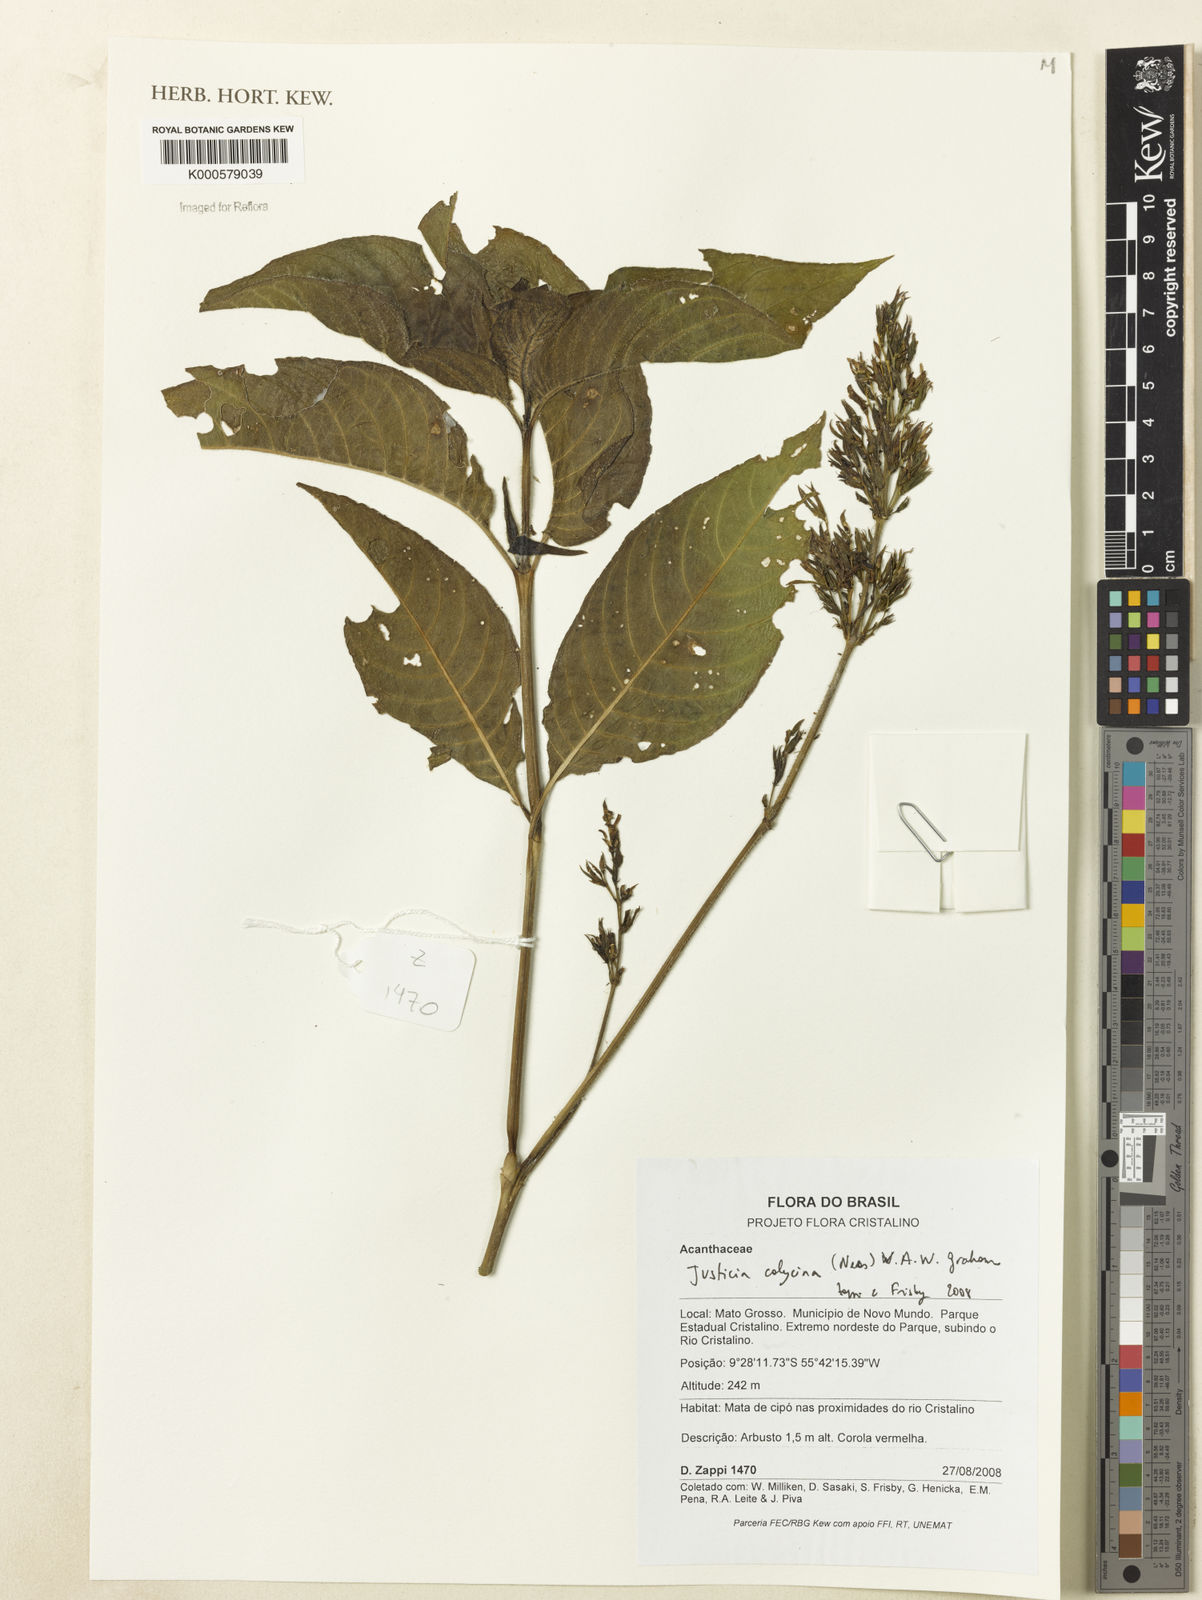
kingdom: Plantae
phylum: Tracheophyta
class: Magnoliopsida
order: Lamiales
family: Acanthaceae
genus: Dianthera
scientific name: Dianthera calycina
